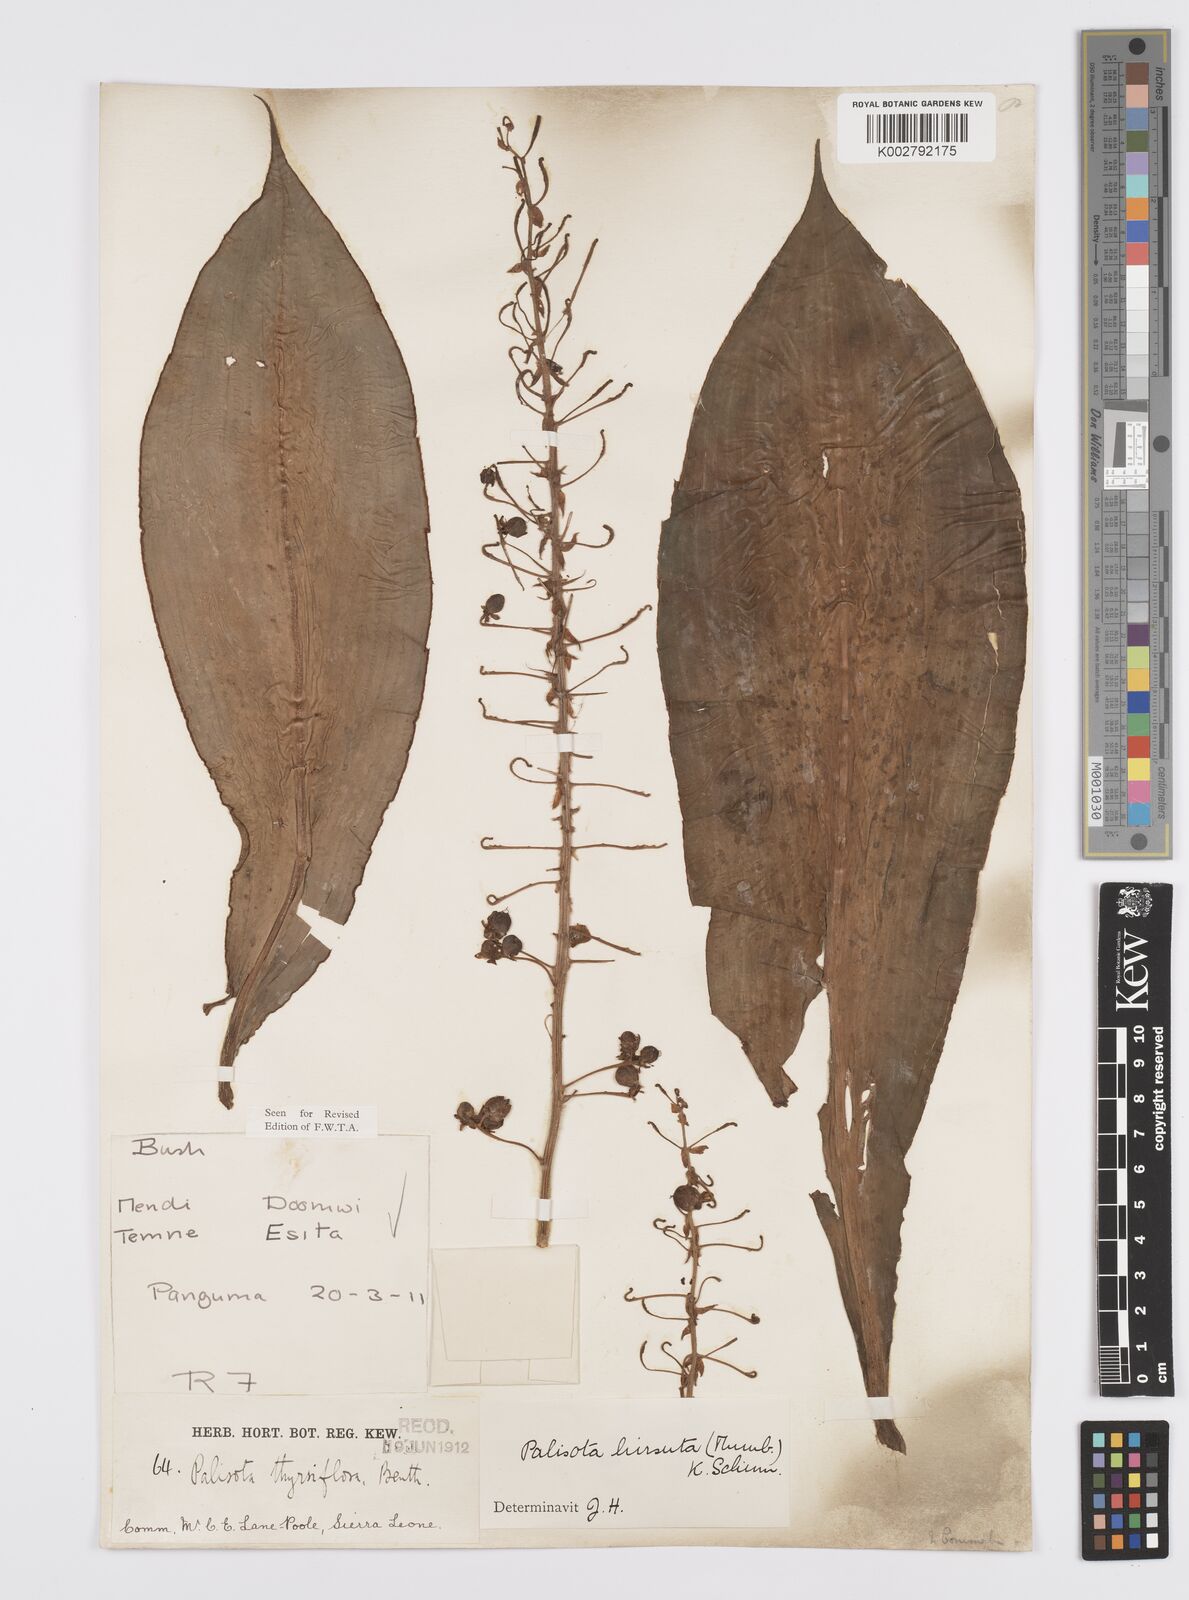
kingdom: Plantae
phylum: Tracheophyta
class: Liliopsida
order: Commelinales
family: Commelinaceae
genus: Palisota
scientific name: Palisota hirsuta
